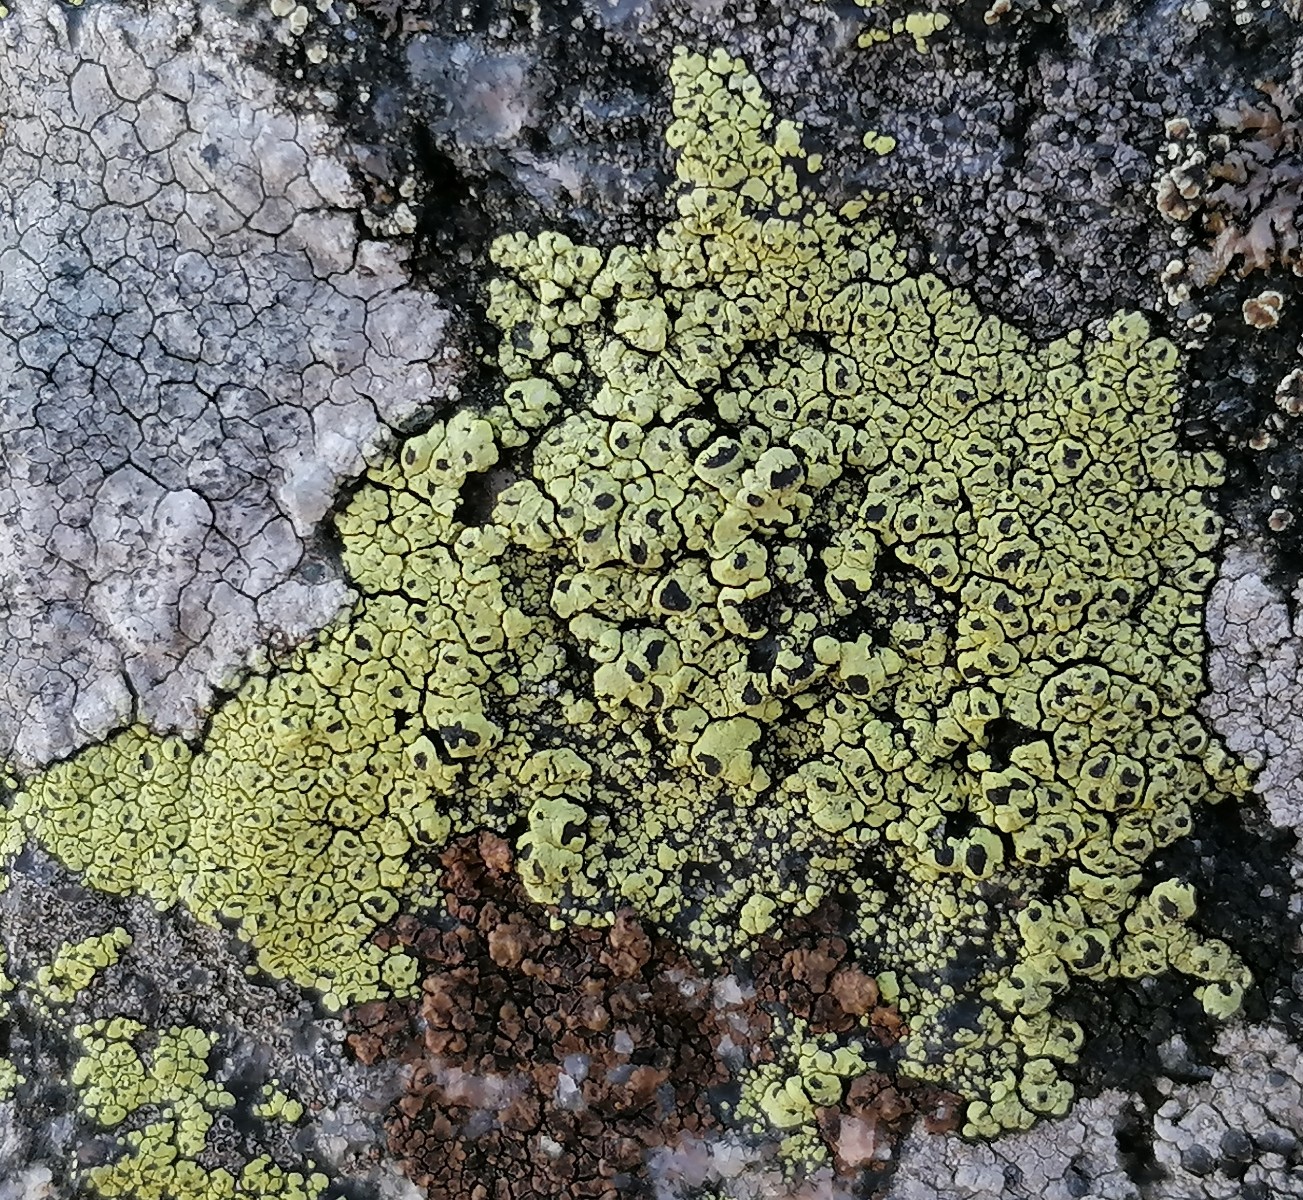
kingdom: Fungi
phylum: Ascomycota
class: Lecanoromycetes
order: Rhizocarpales
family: Rhizocarpaceae
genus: Rhizocarpon
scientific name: Rhizocarpon lecanorinum
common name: krave-landkortlav
